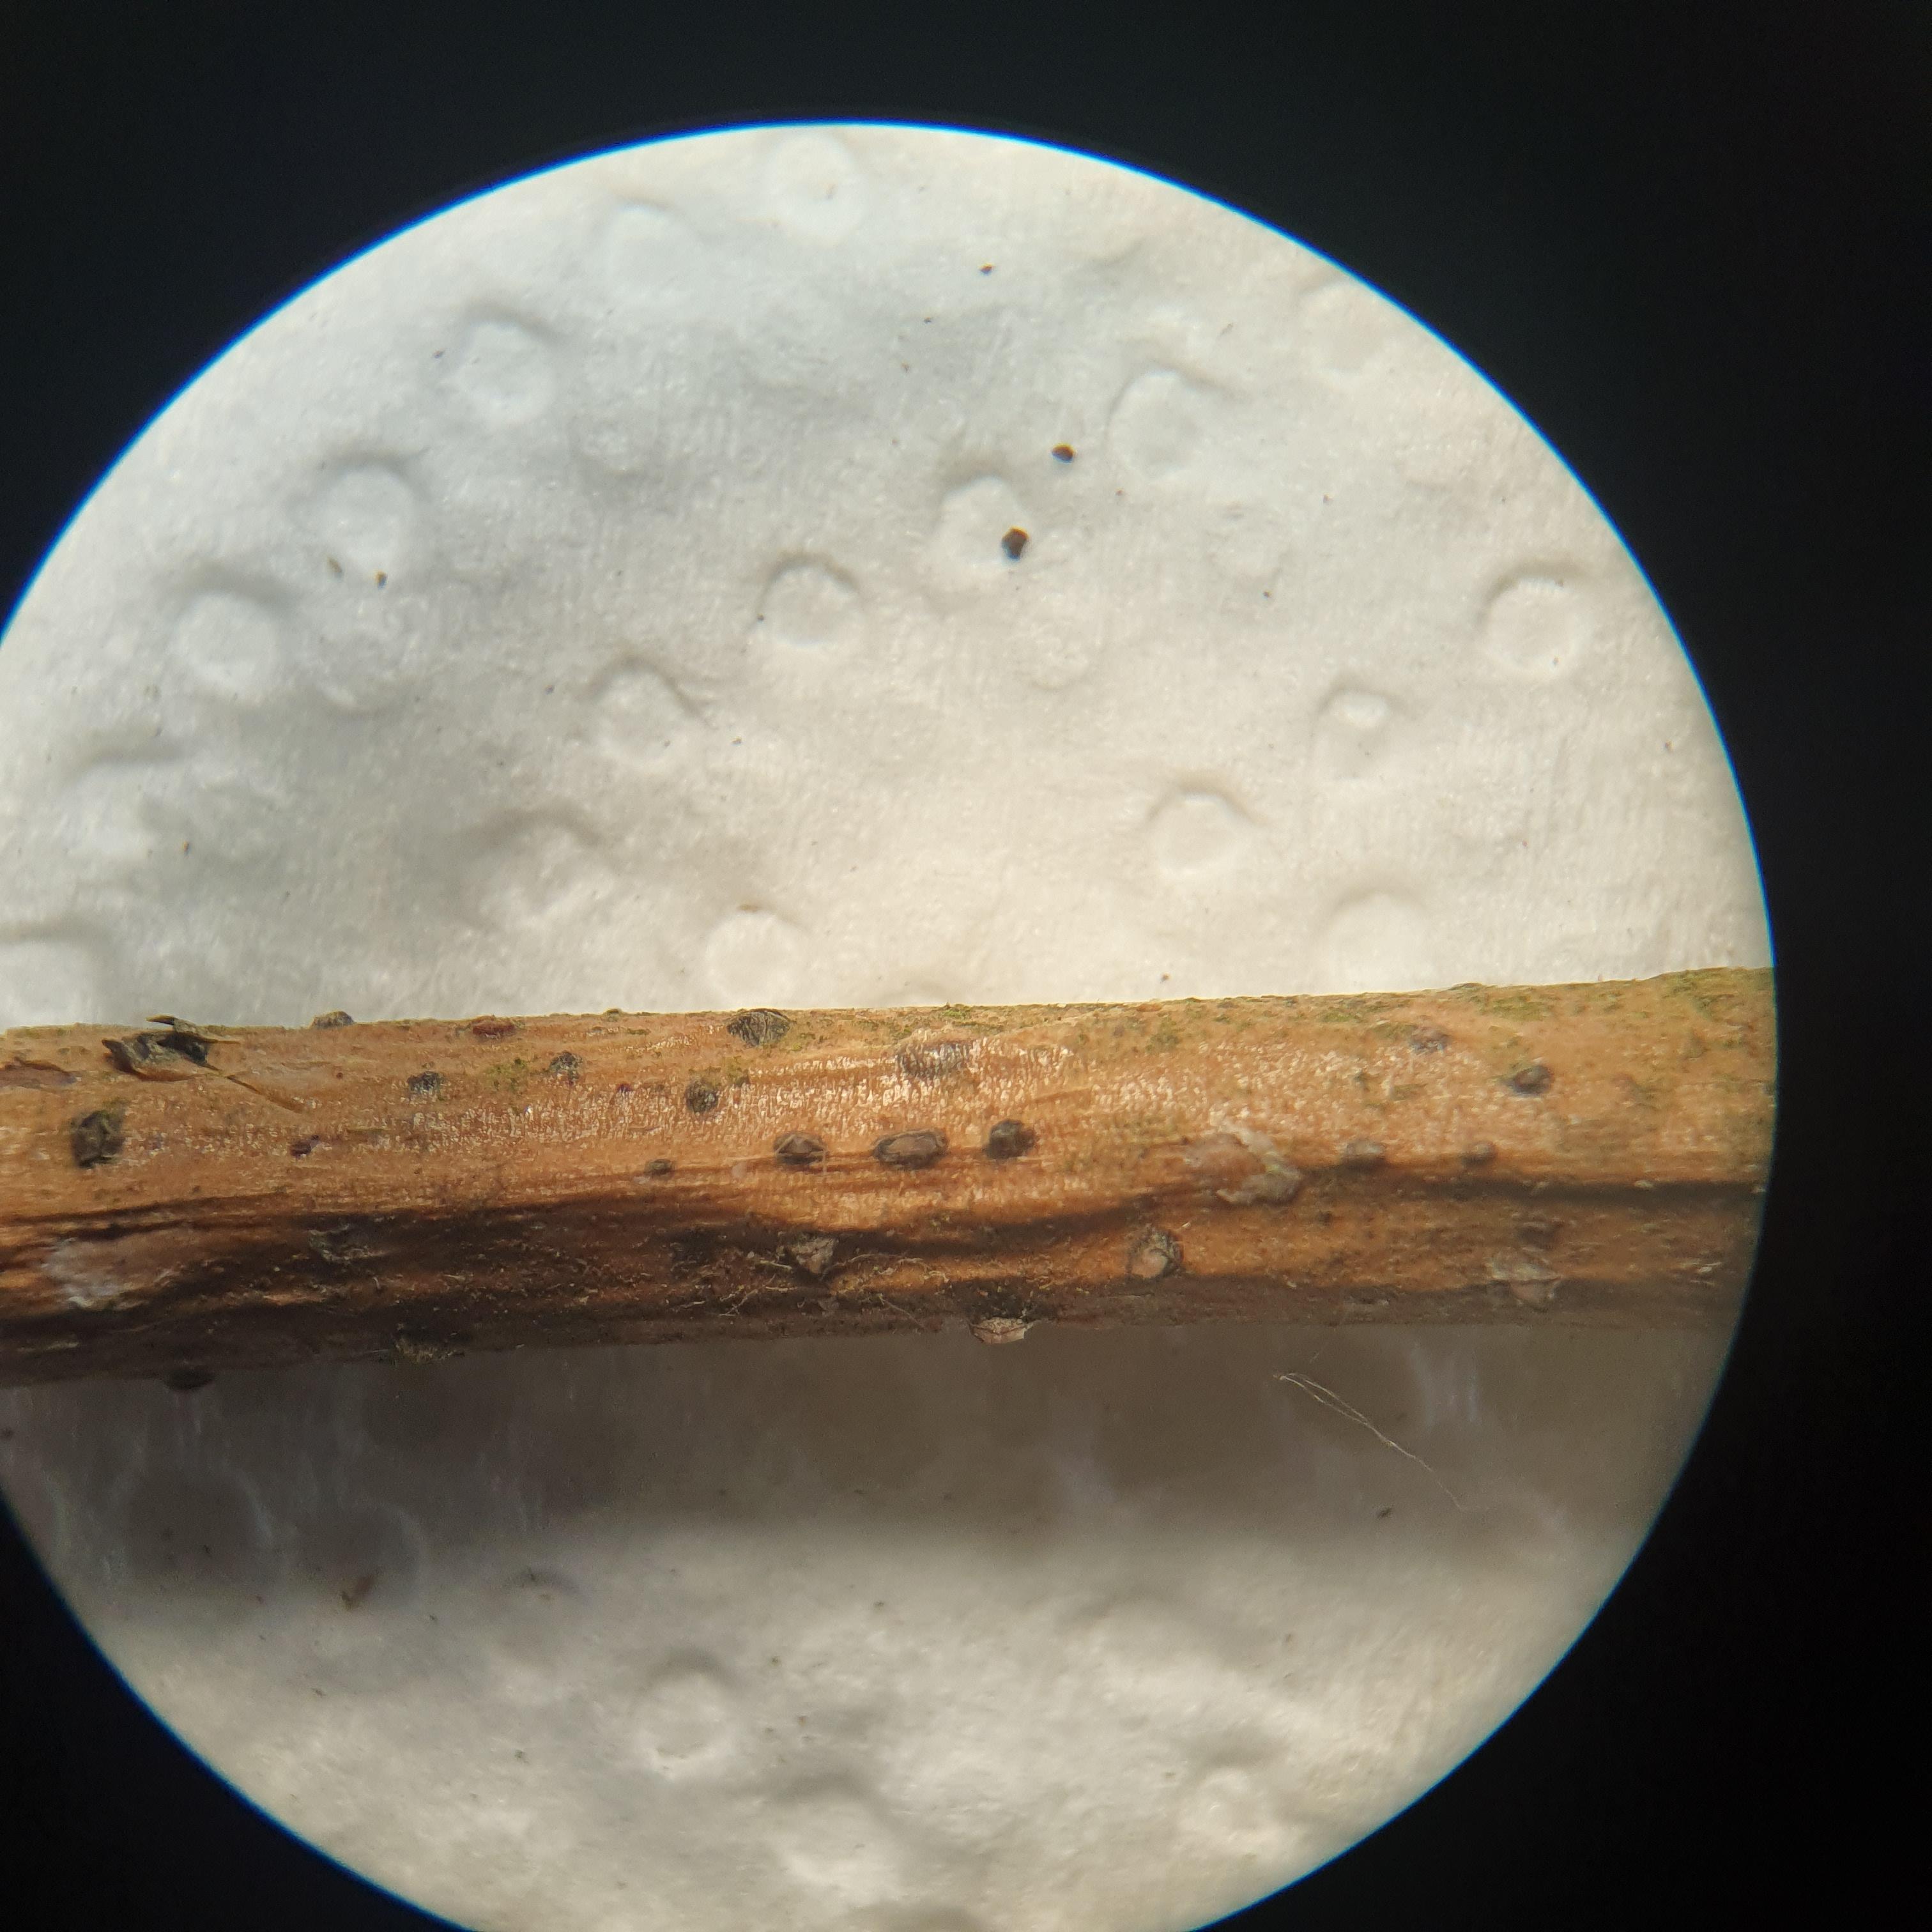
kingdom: Fungi
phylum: Ascomycota
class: Sordariomycetes
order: Diaporthales
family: Gnomoniaceae
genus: Plagiostoma
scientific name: Plagiostoma
